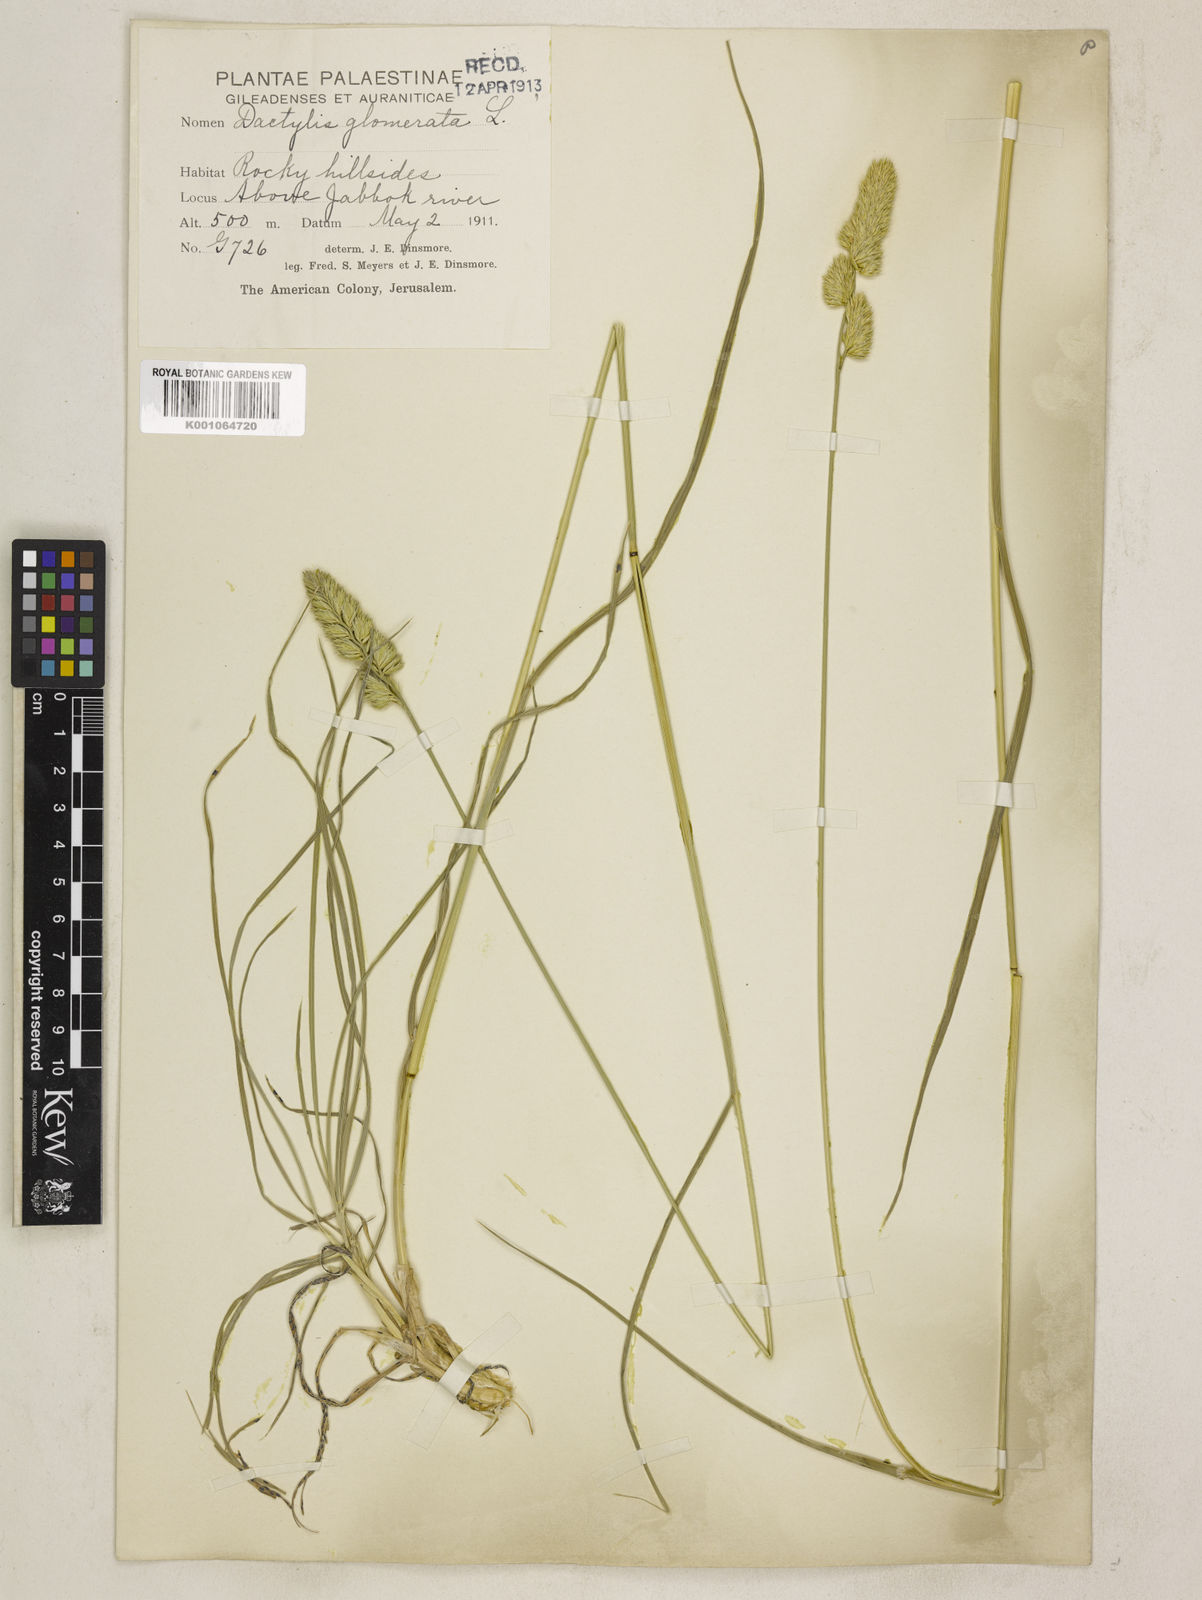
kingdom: Plantae
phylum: Tracheophyta
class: Liliopsida
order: Poales
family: Poaceae
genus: Dactylis
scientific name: Dactylis glomerata
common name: Orchardgrass
